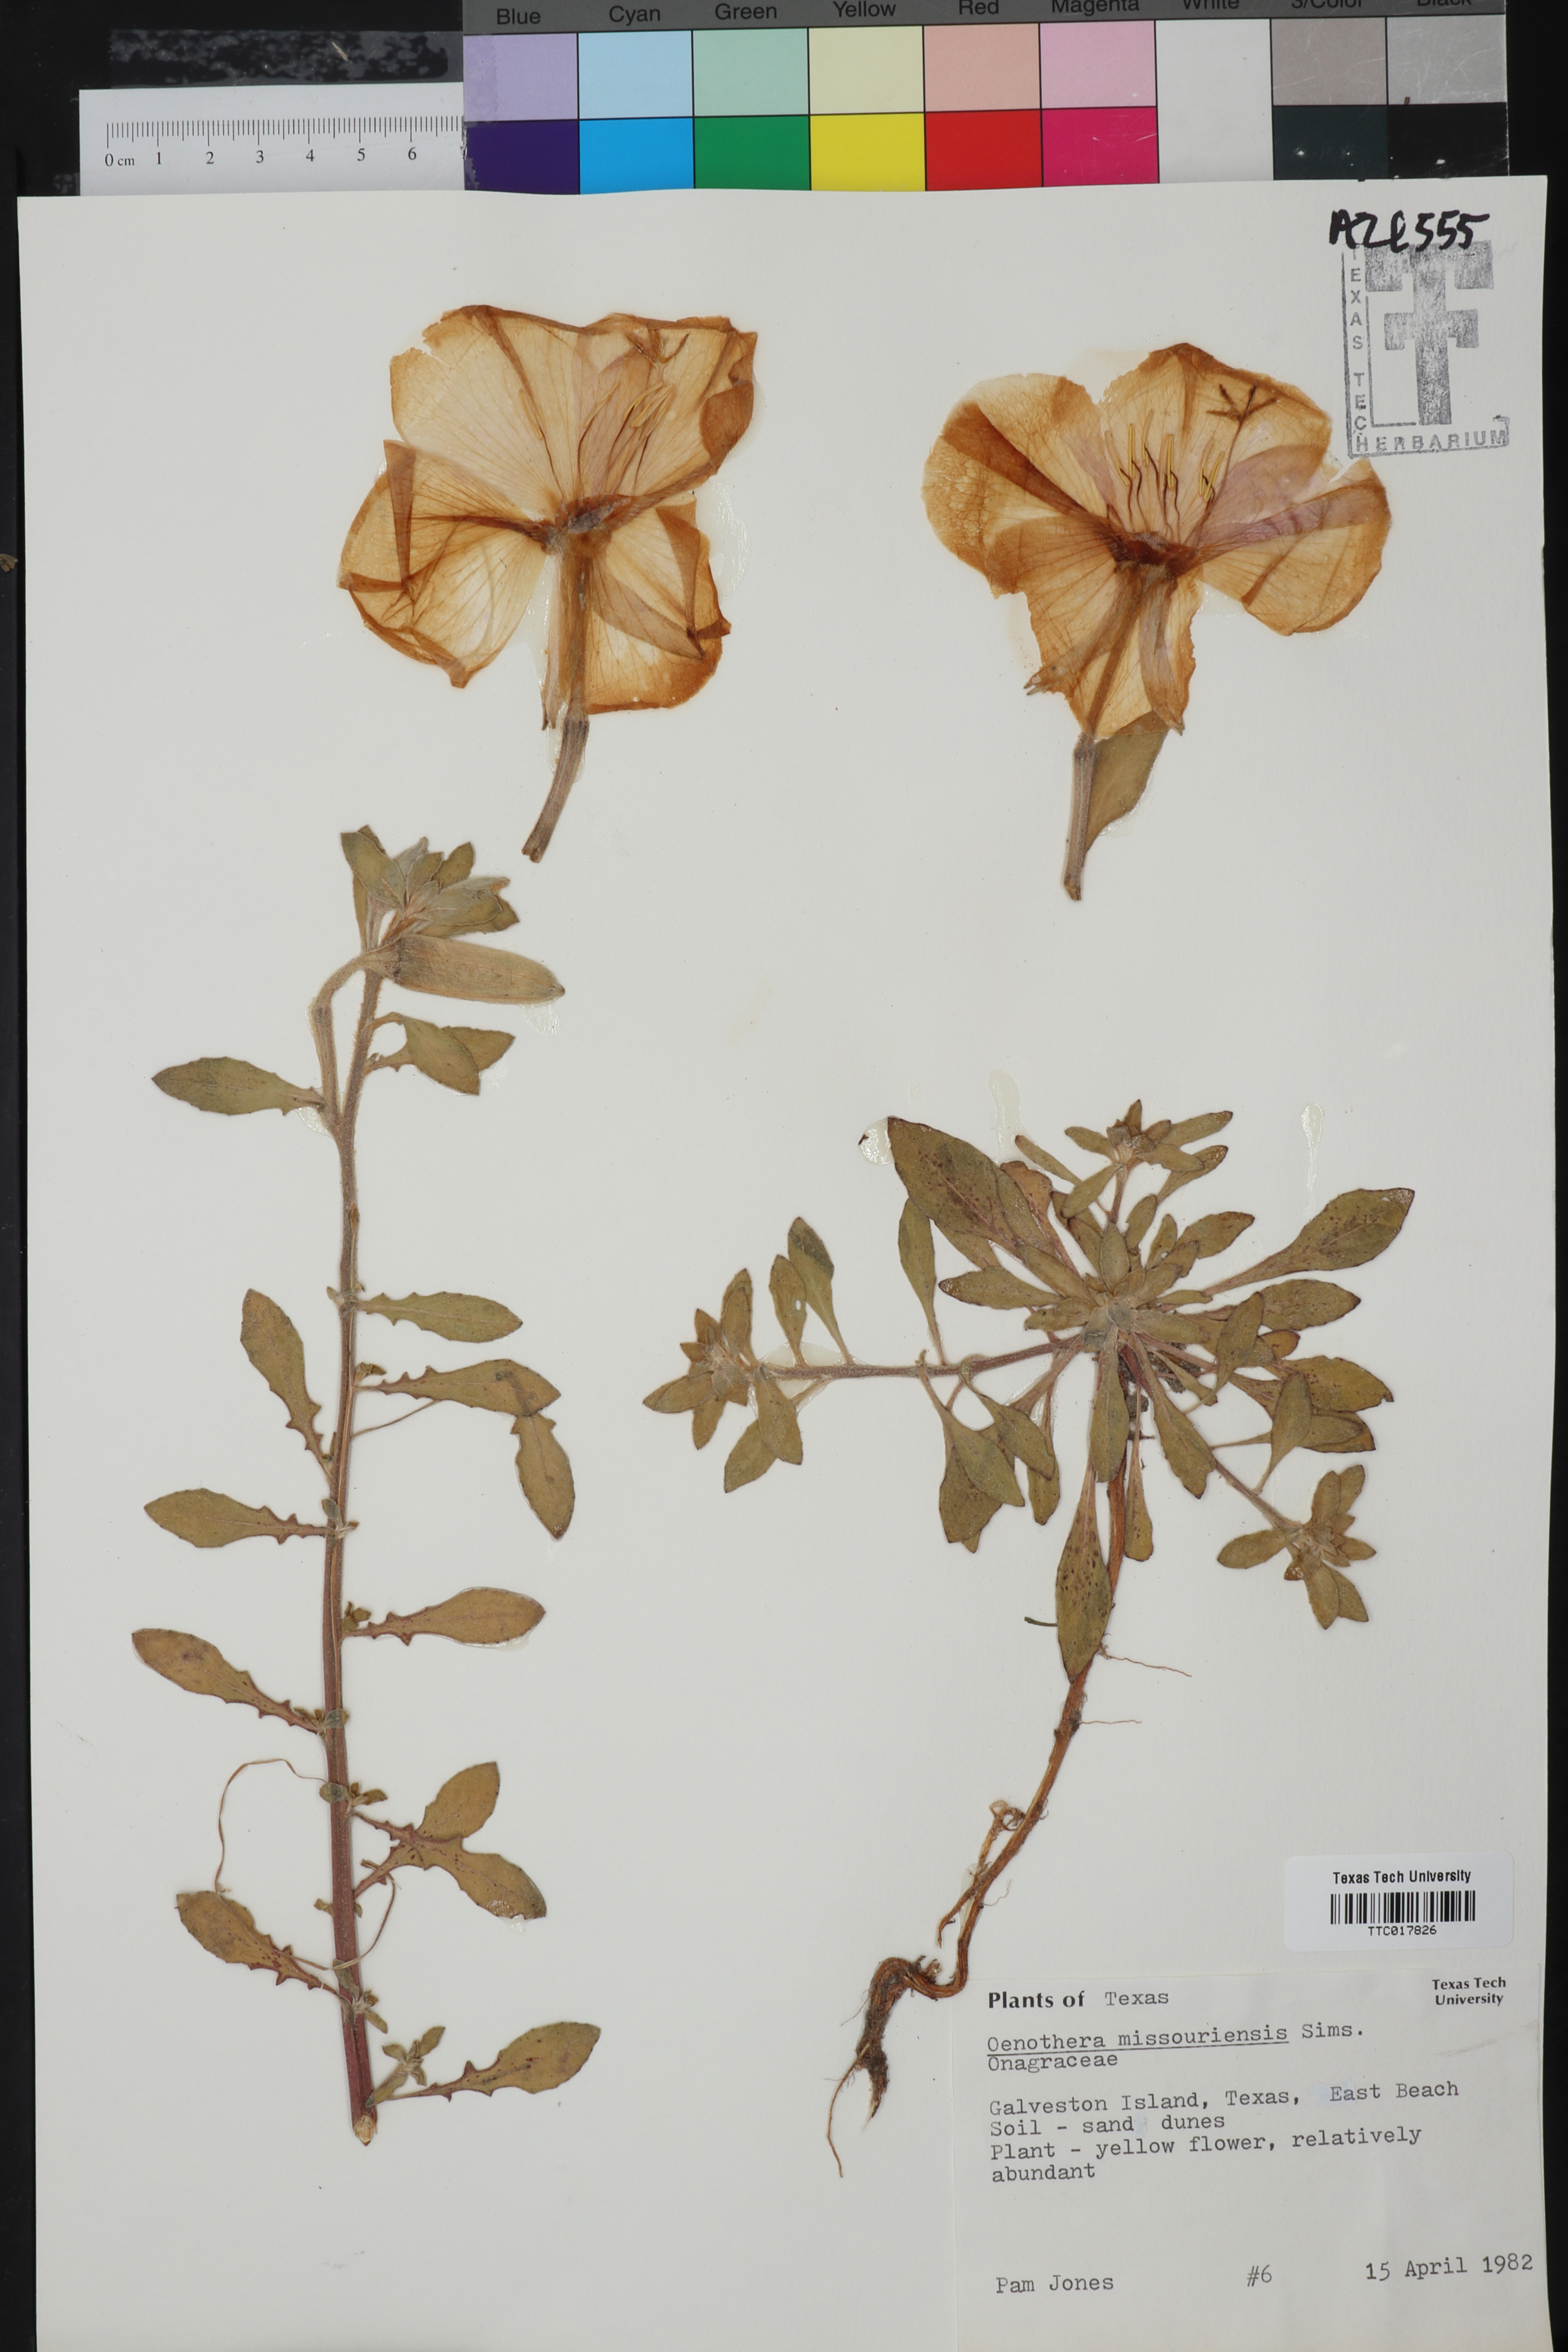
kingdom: Plantae
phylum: Tracheophyta
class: Magnoliopsida
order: Myrtales
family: Onagraceae
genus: Oenothera
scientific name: Oenothera macrocarpa
